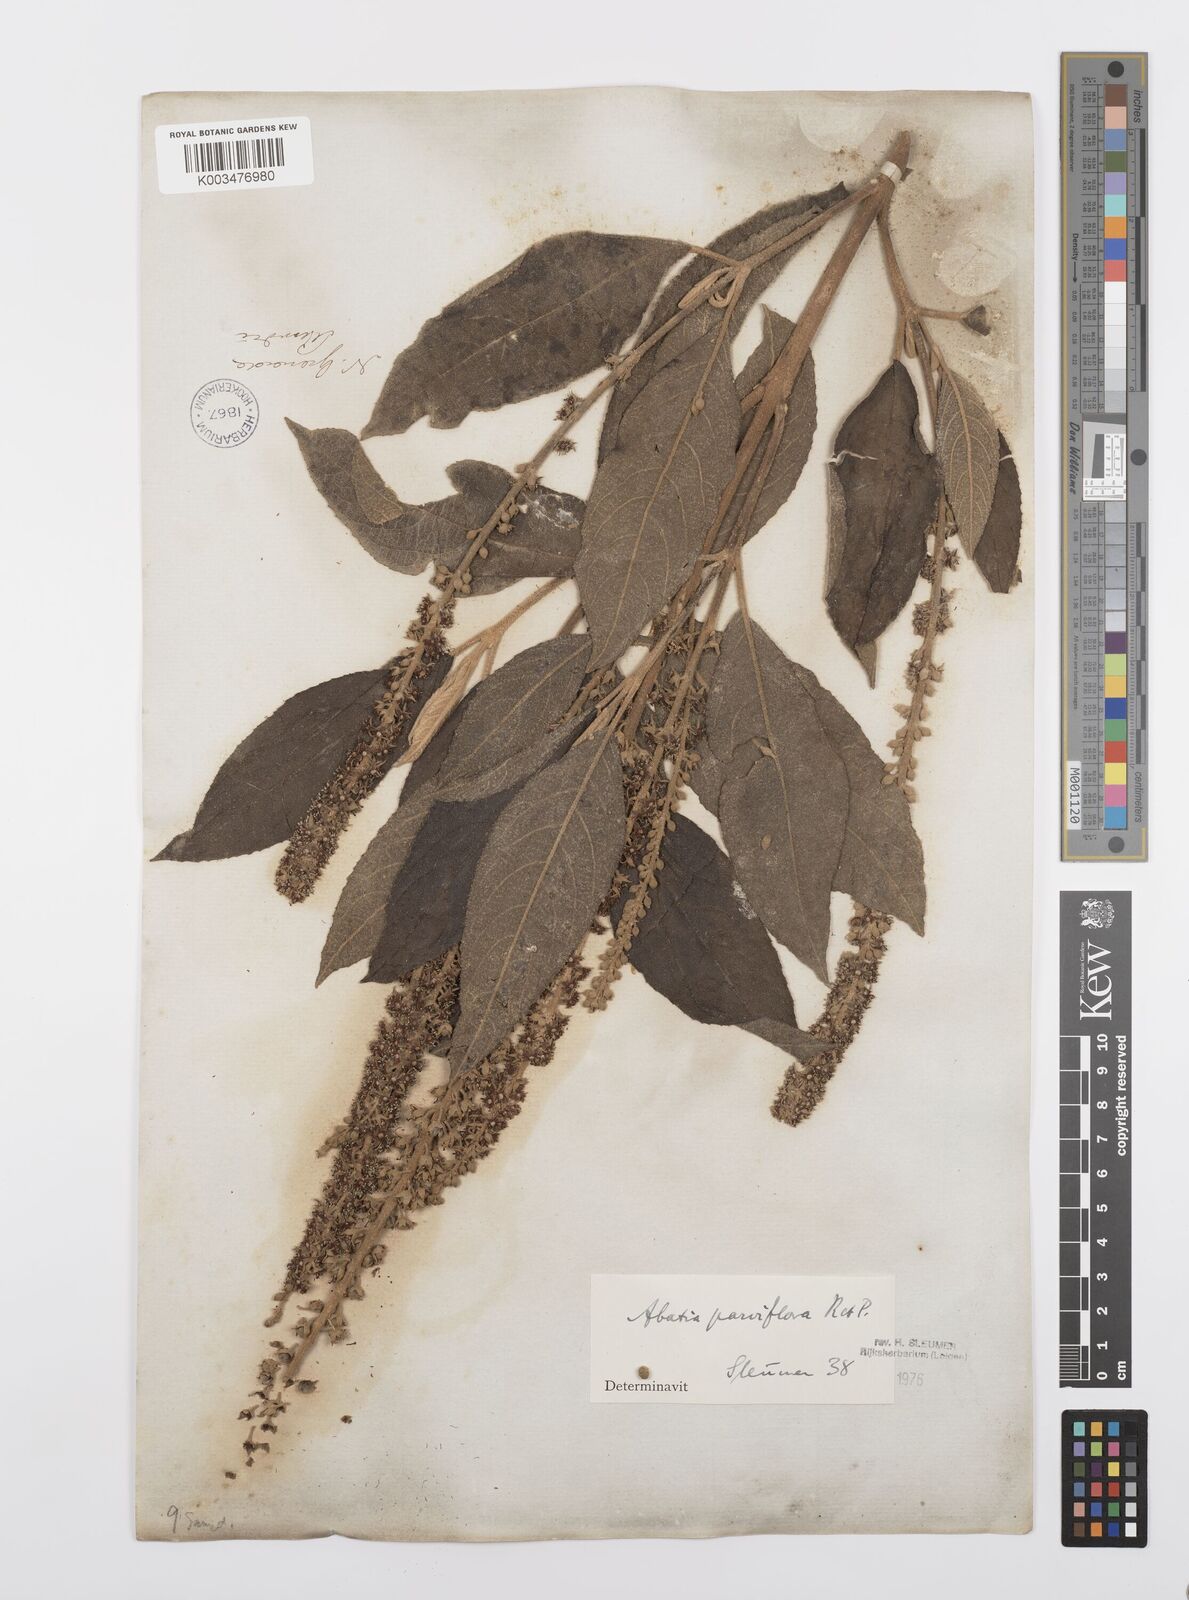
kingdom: Plantae
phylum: Tracheophyta
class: Magnoliopsida
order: Malpighiales
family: Salicaceae
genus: Abatia
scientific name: Abatia parviflora
